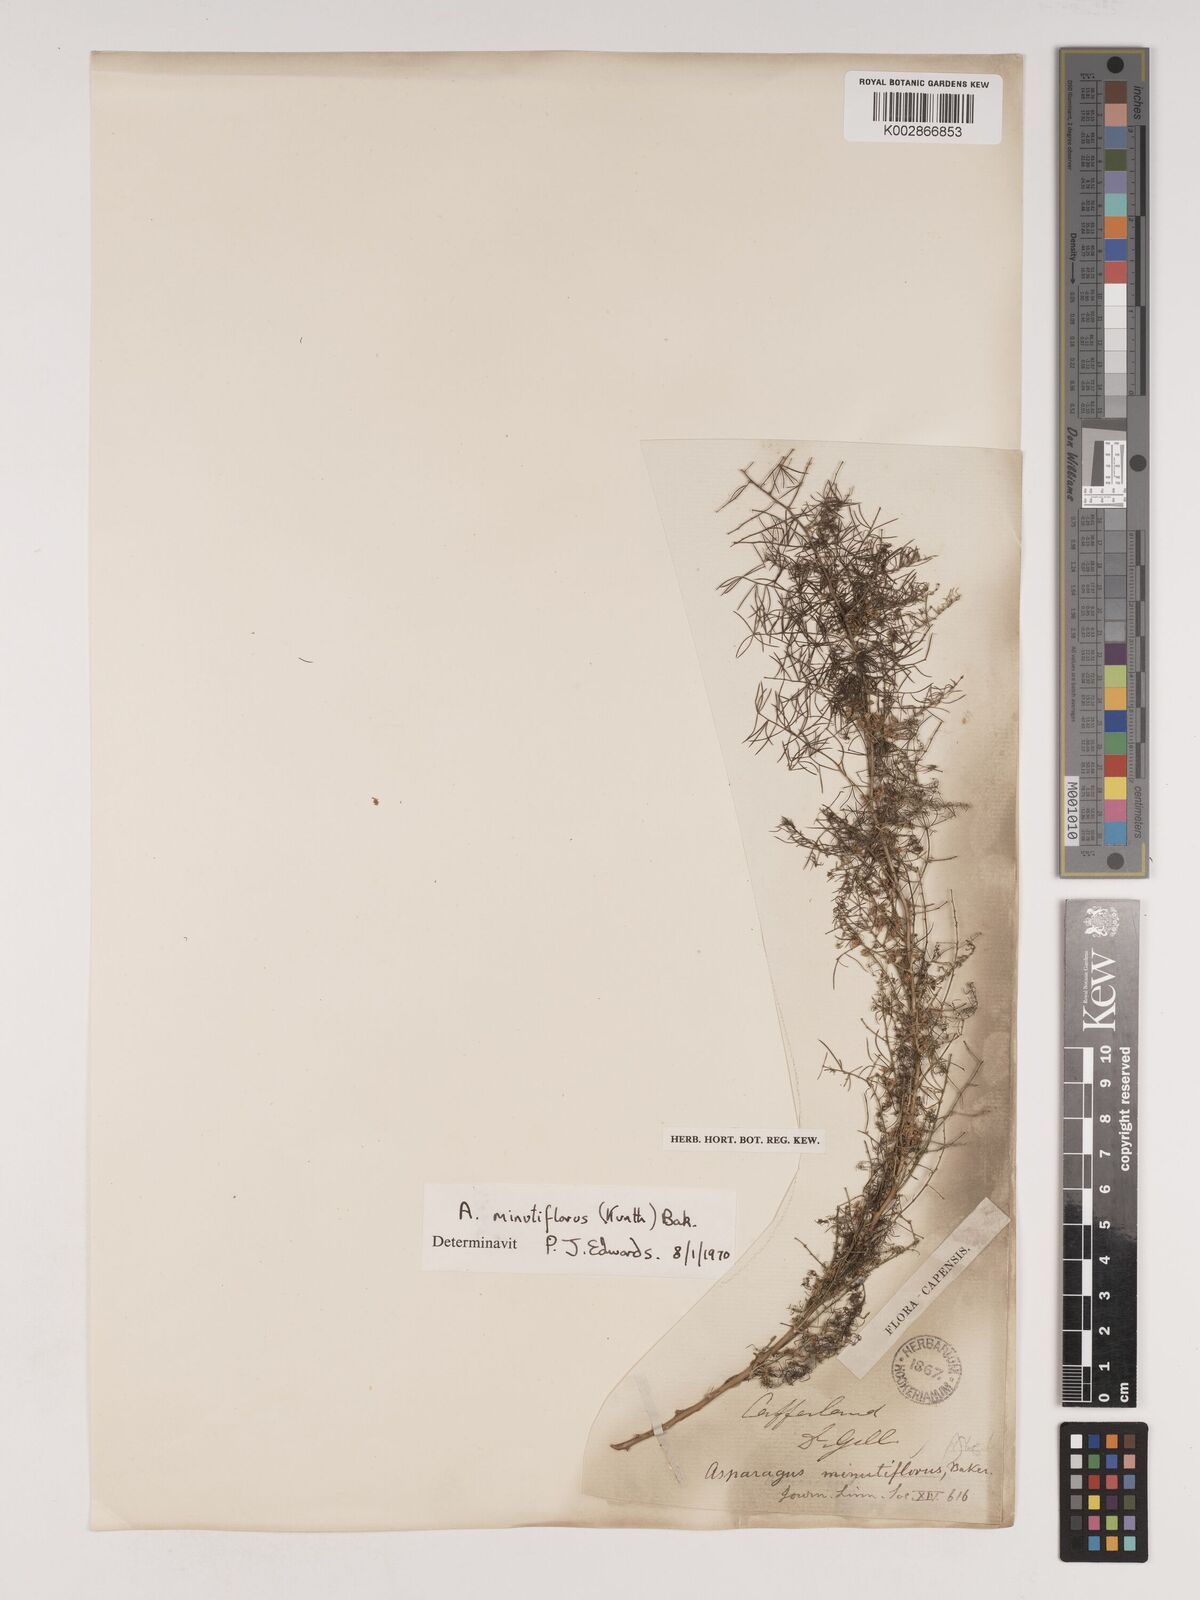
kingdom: Plantae
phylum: Tracheophyta
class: Liliopsida
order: Asparagales
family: Asparagaceae
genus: Asparagus
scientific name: Asparagus minutiflorus
